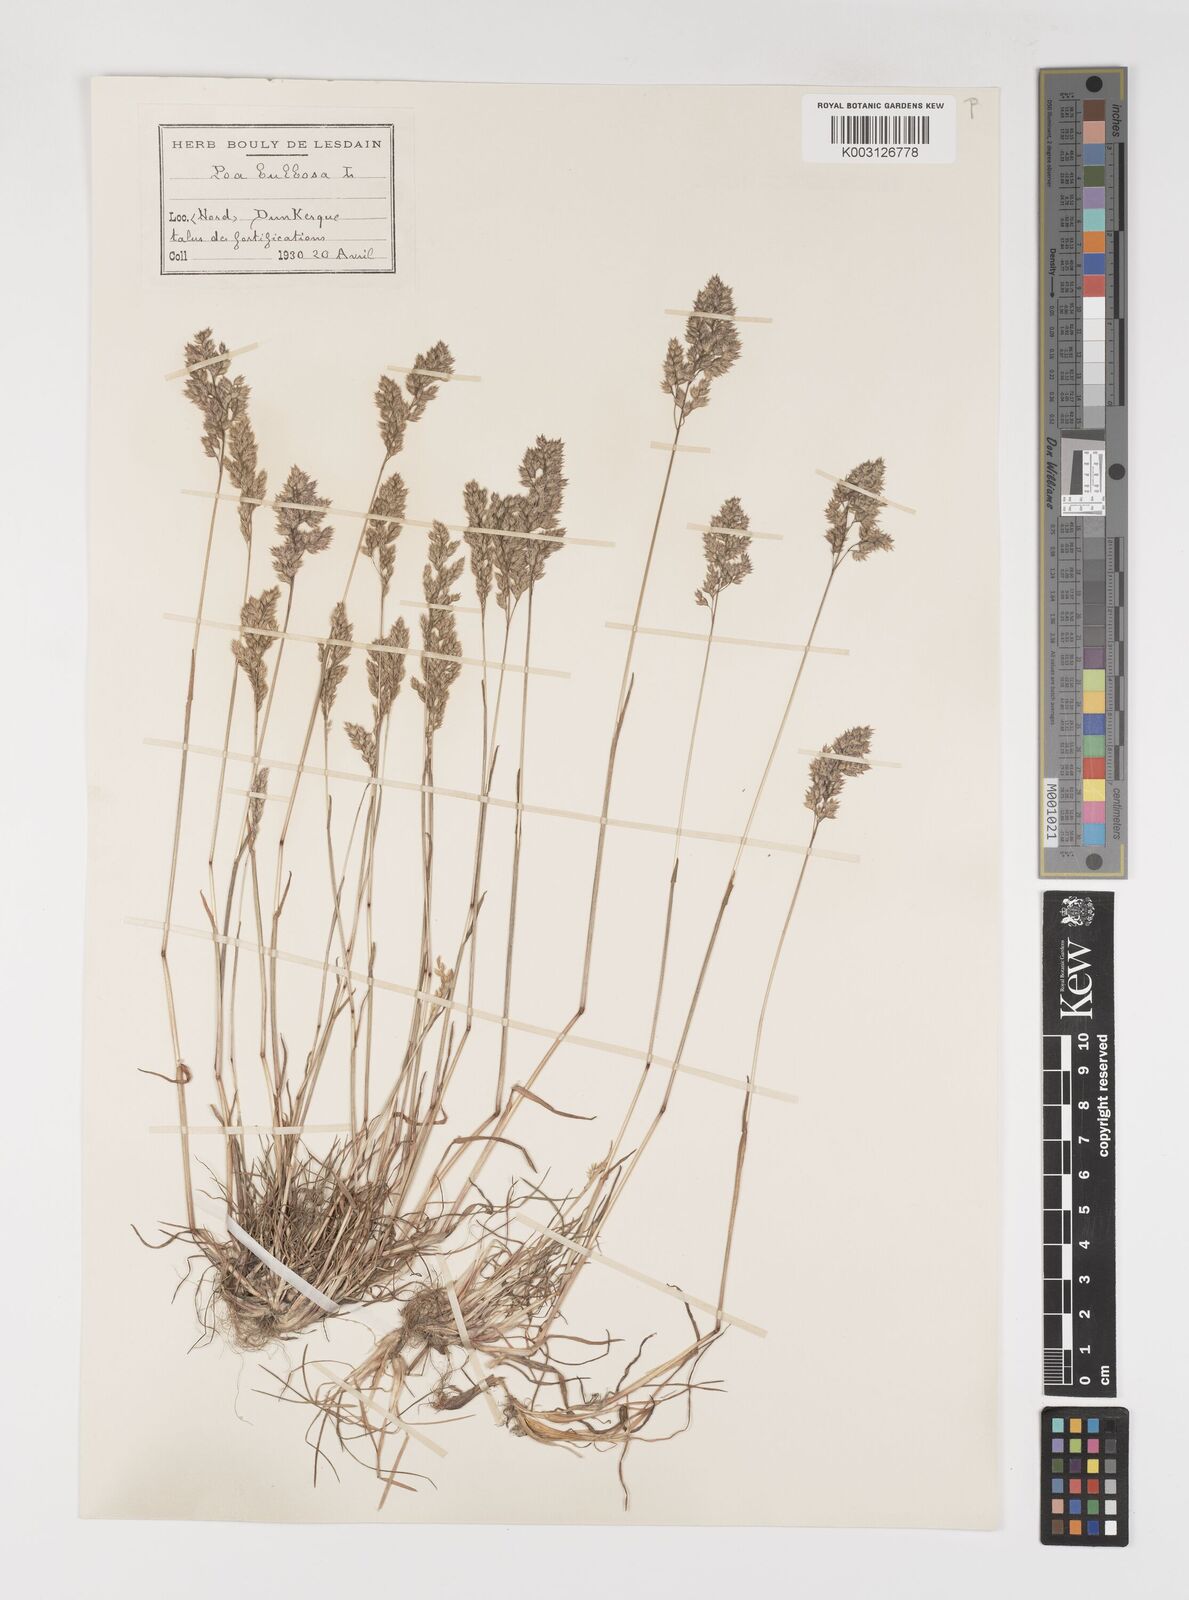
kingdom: Plantae
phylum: Tracheophyta
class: Liliopsida
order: Poales
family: Poaceae
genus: Poa
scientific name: Poa bulbosa
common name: Bulbous bluegrass
